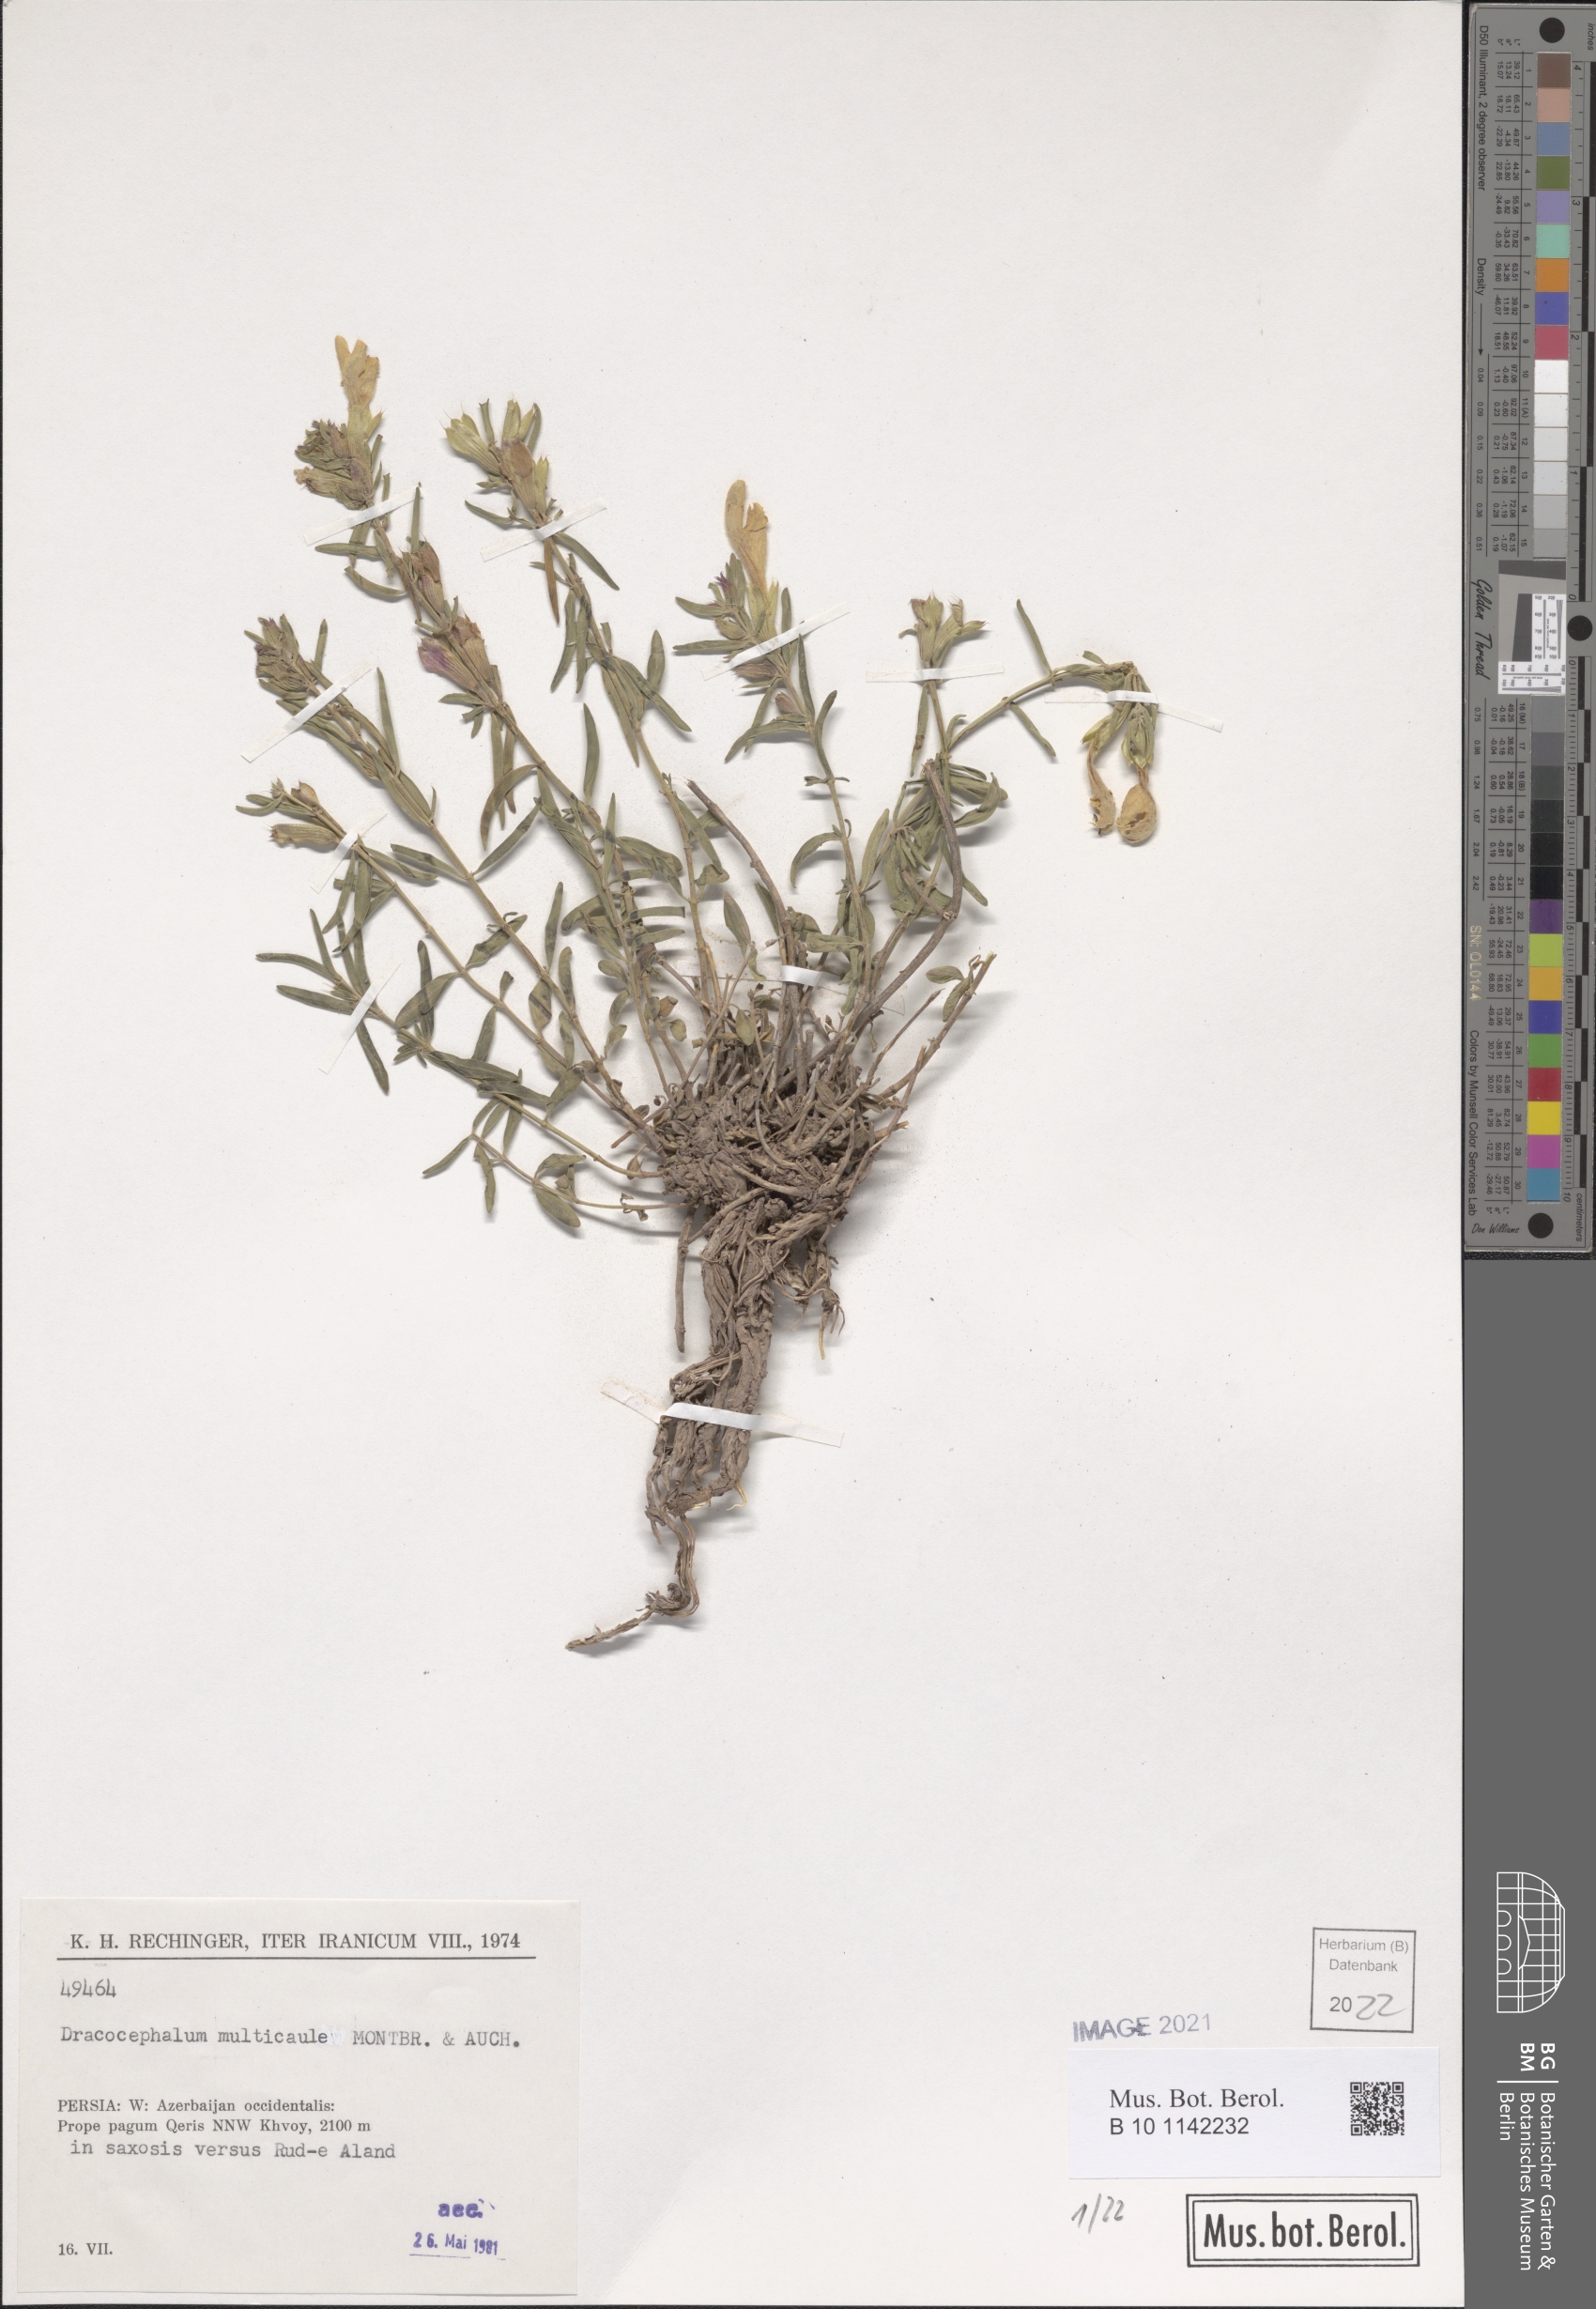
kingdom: Plantae
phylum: Tracheophyta
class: Magnoliopsida
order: Lamiales
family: Lamiaceae
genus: Dracocephalum
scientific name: Dracocephalum multicaule
